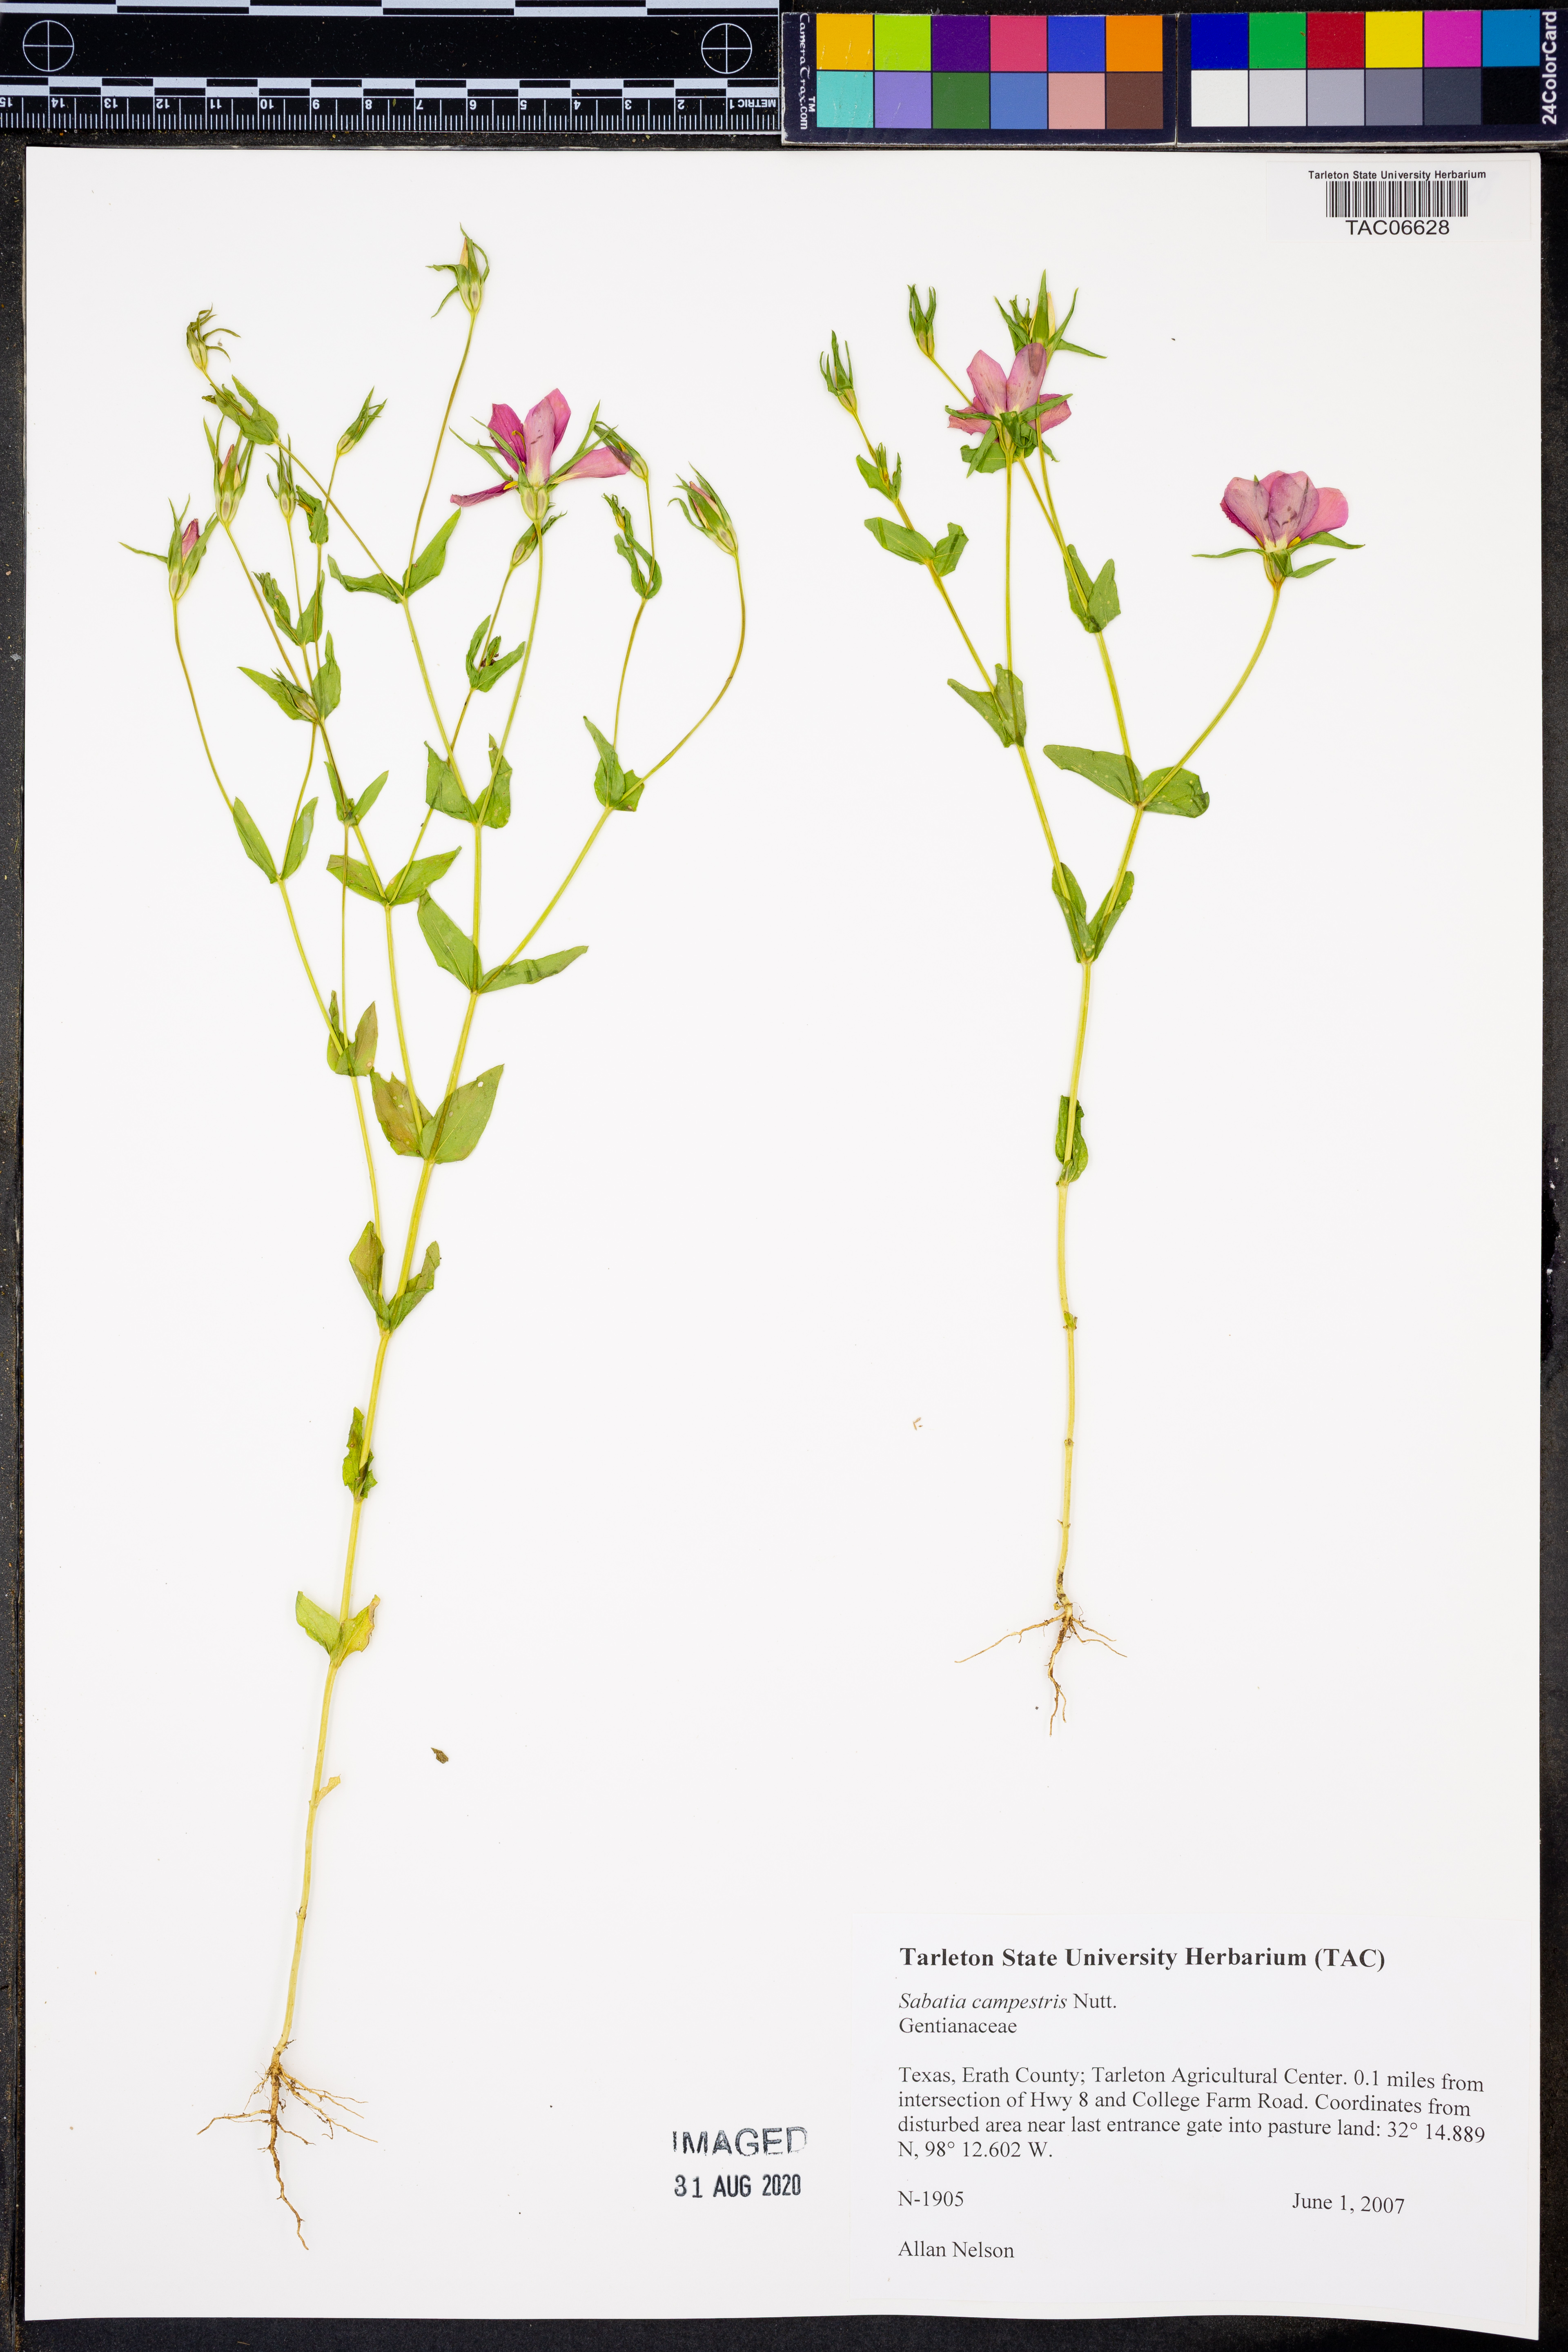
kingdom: Plantae
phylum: Tracheophyta
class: Magnoliopsida
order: Gentianales
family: Gentianaceae
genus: Sabatia
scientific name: Sabatia campestris
